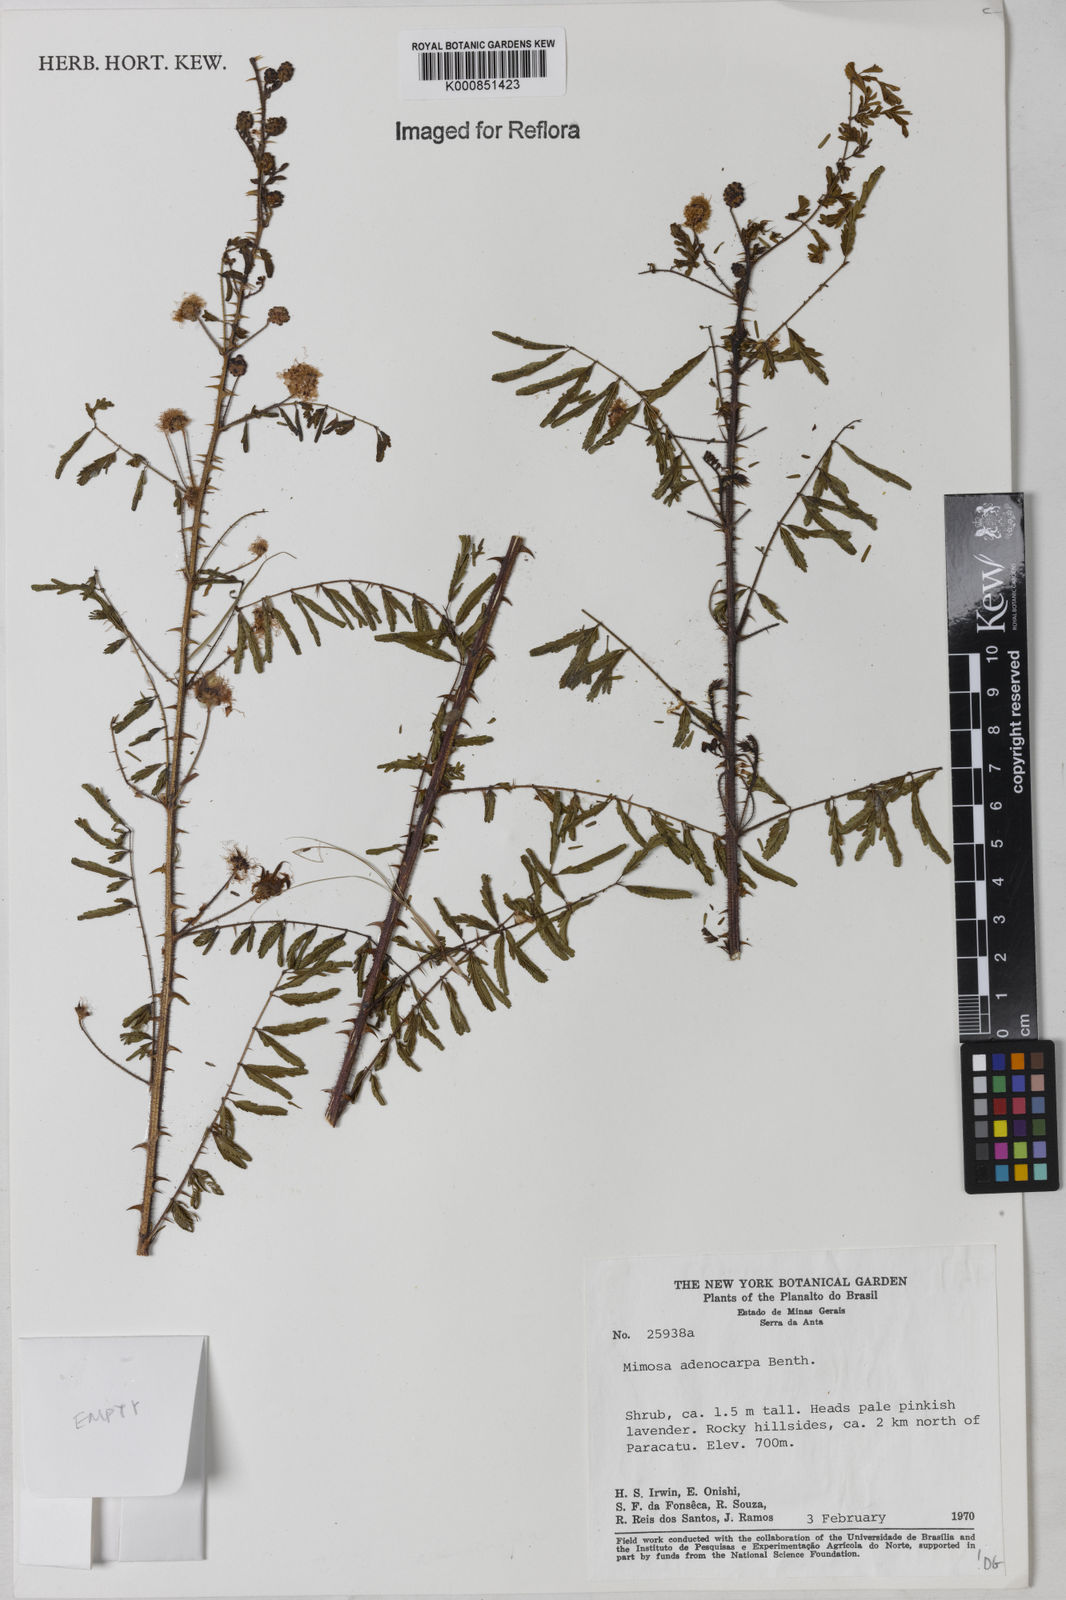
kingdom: Plantae
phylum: Tracheophyta
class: Magnoliopsida
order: Fabales
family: Fabaceae
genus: Mimosa
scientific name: Mimosa adenocarpa
